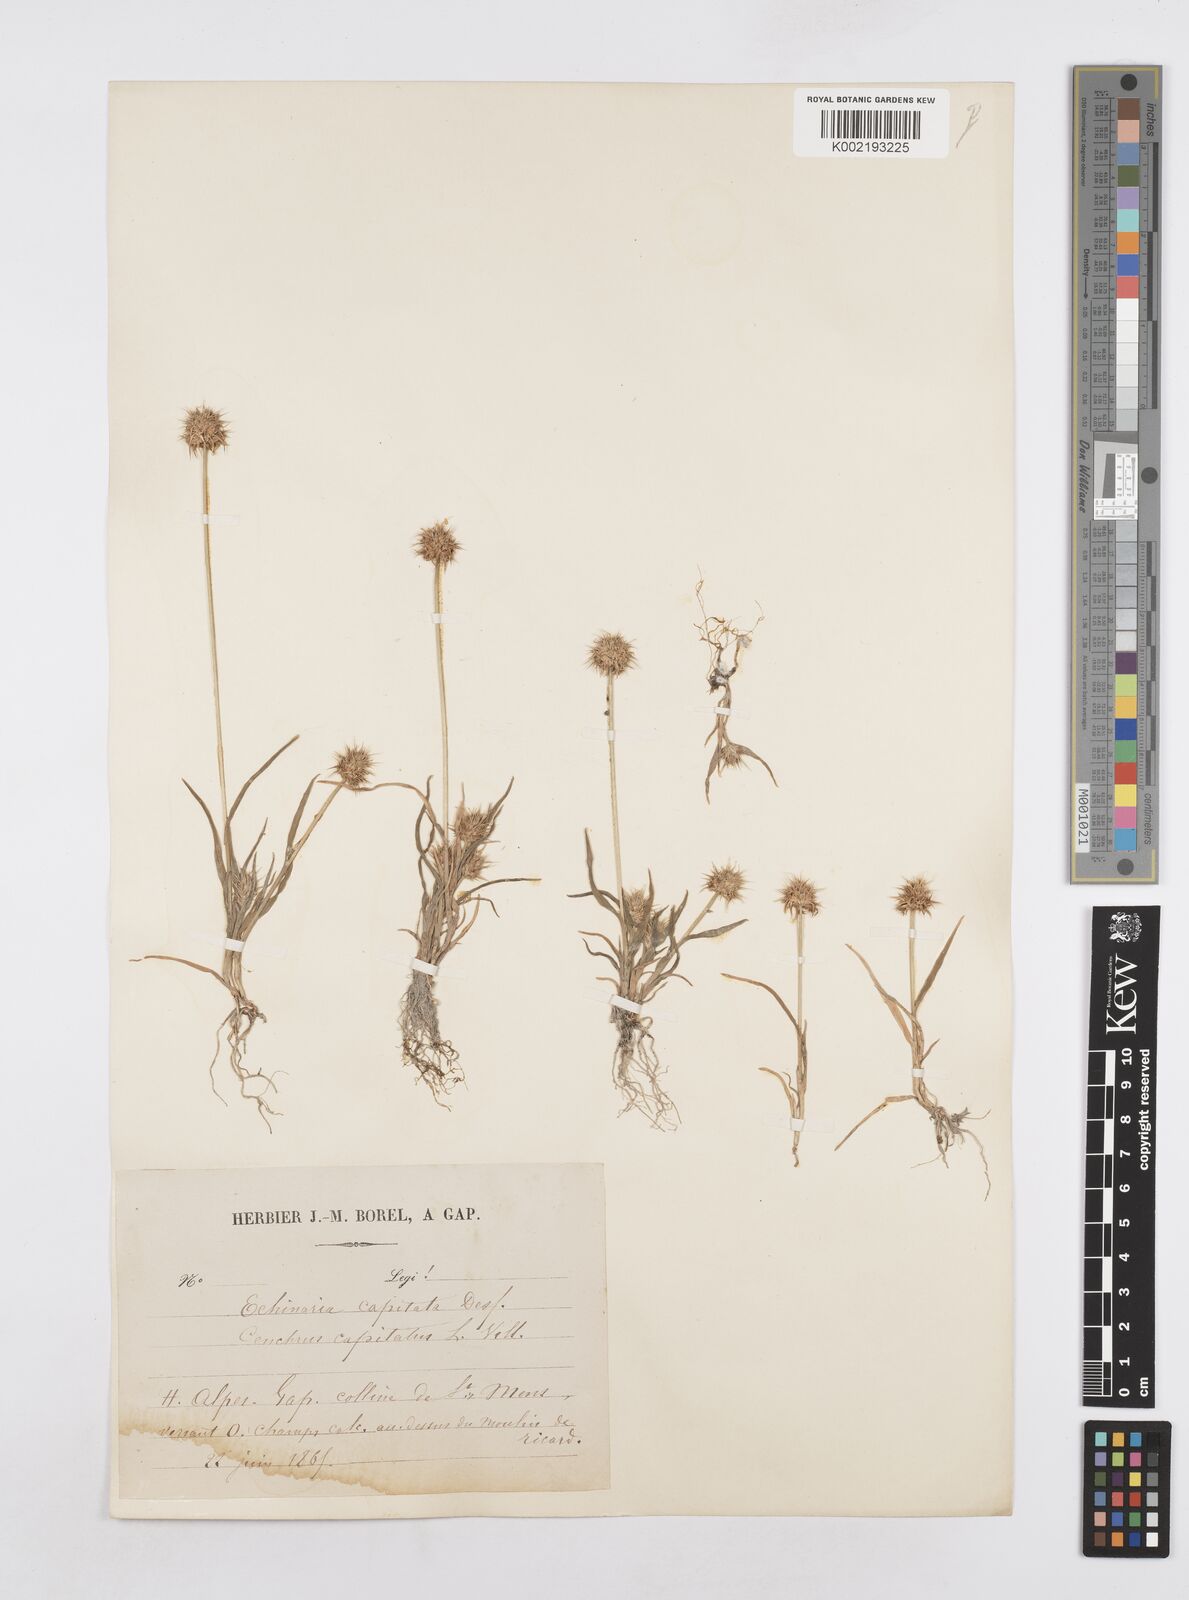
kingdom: Plantae
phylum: Tracheophyta
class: Liliopsida
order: Poales
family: Poaceae
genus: Echinaria
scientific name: Echinaria capitata
